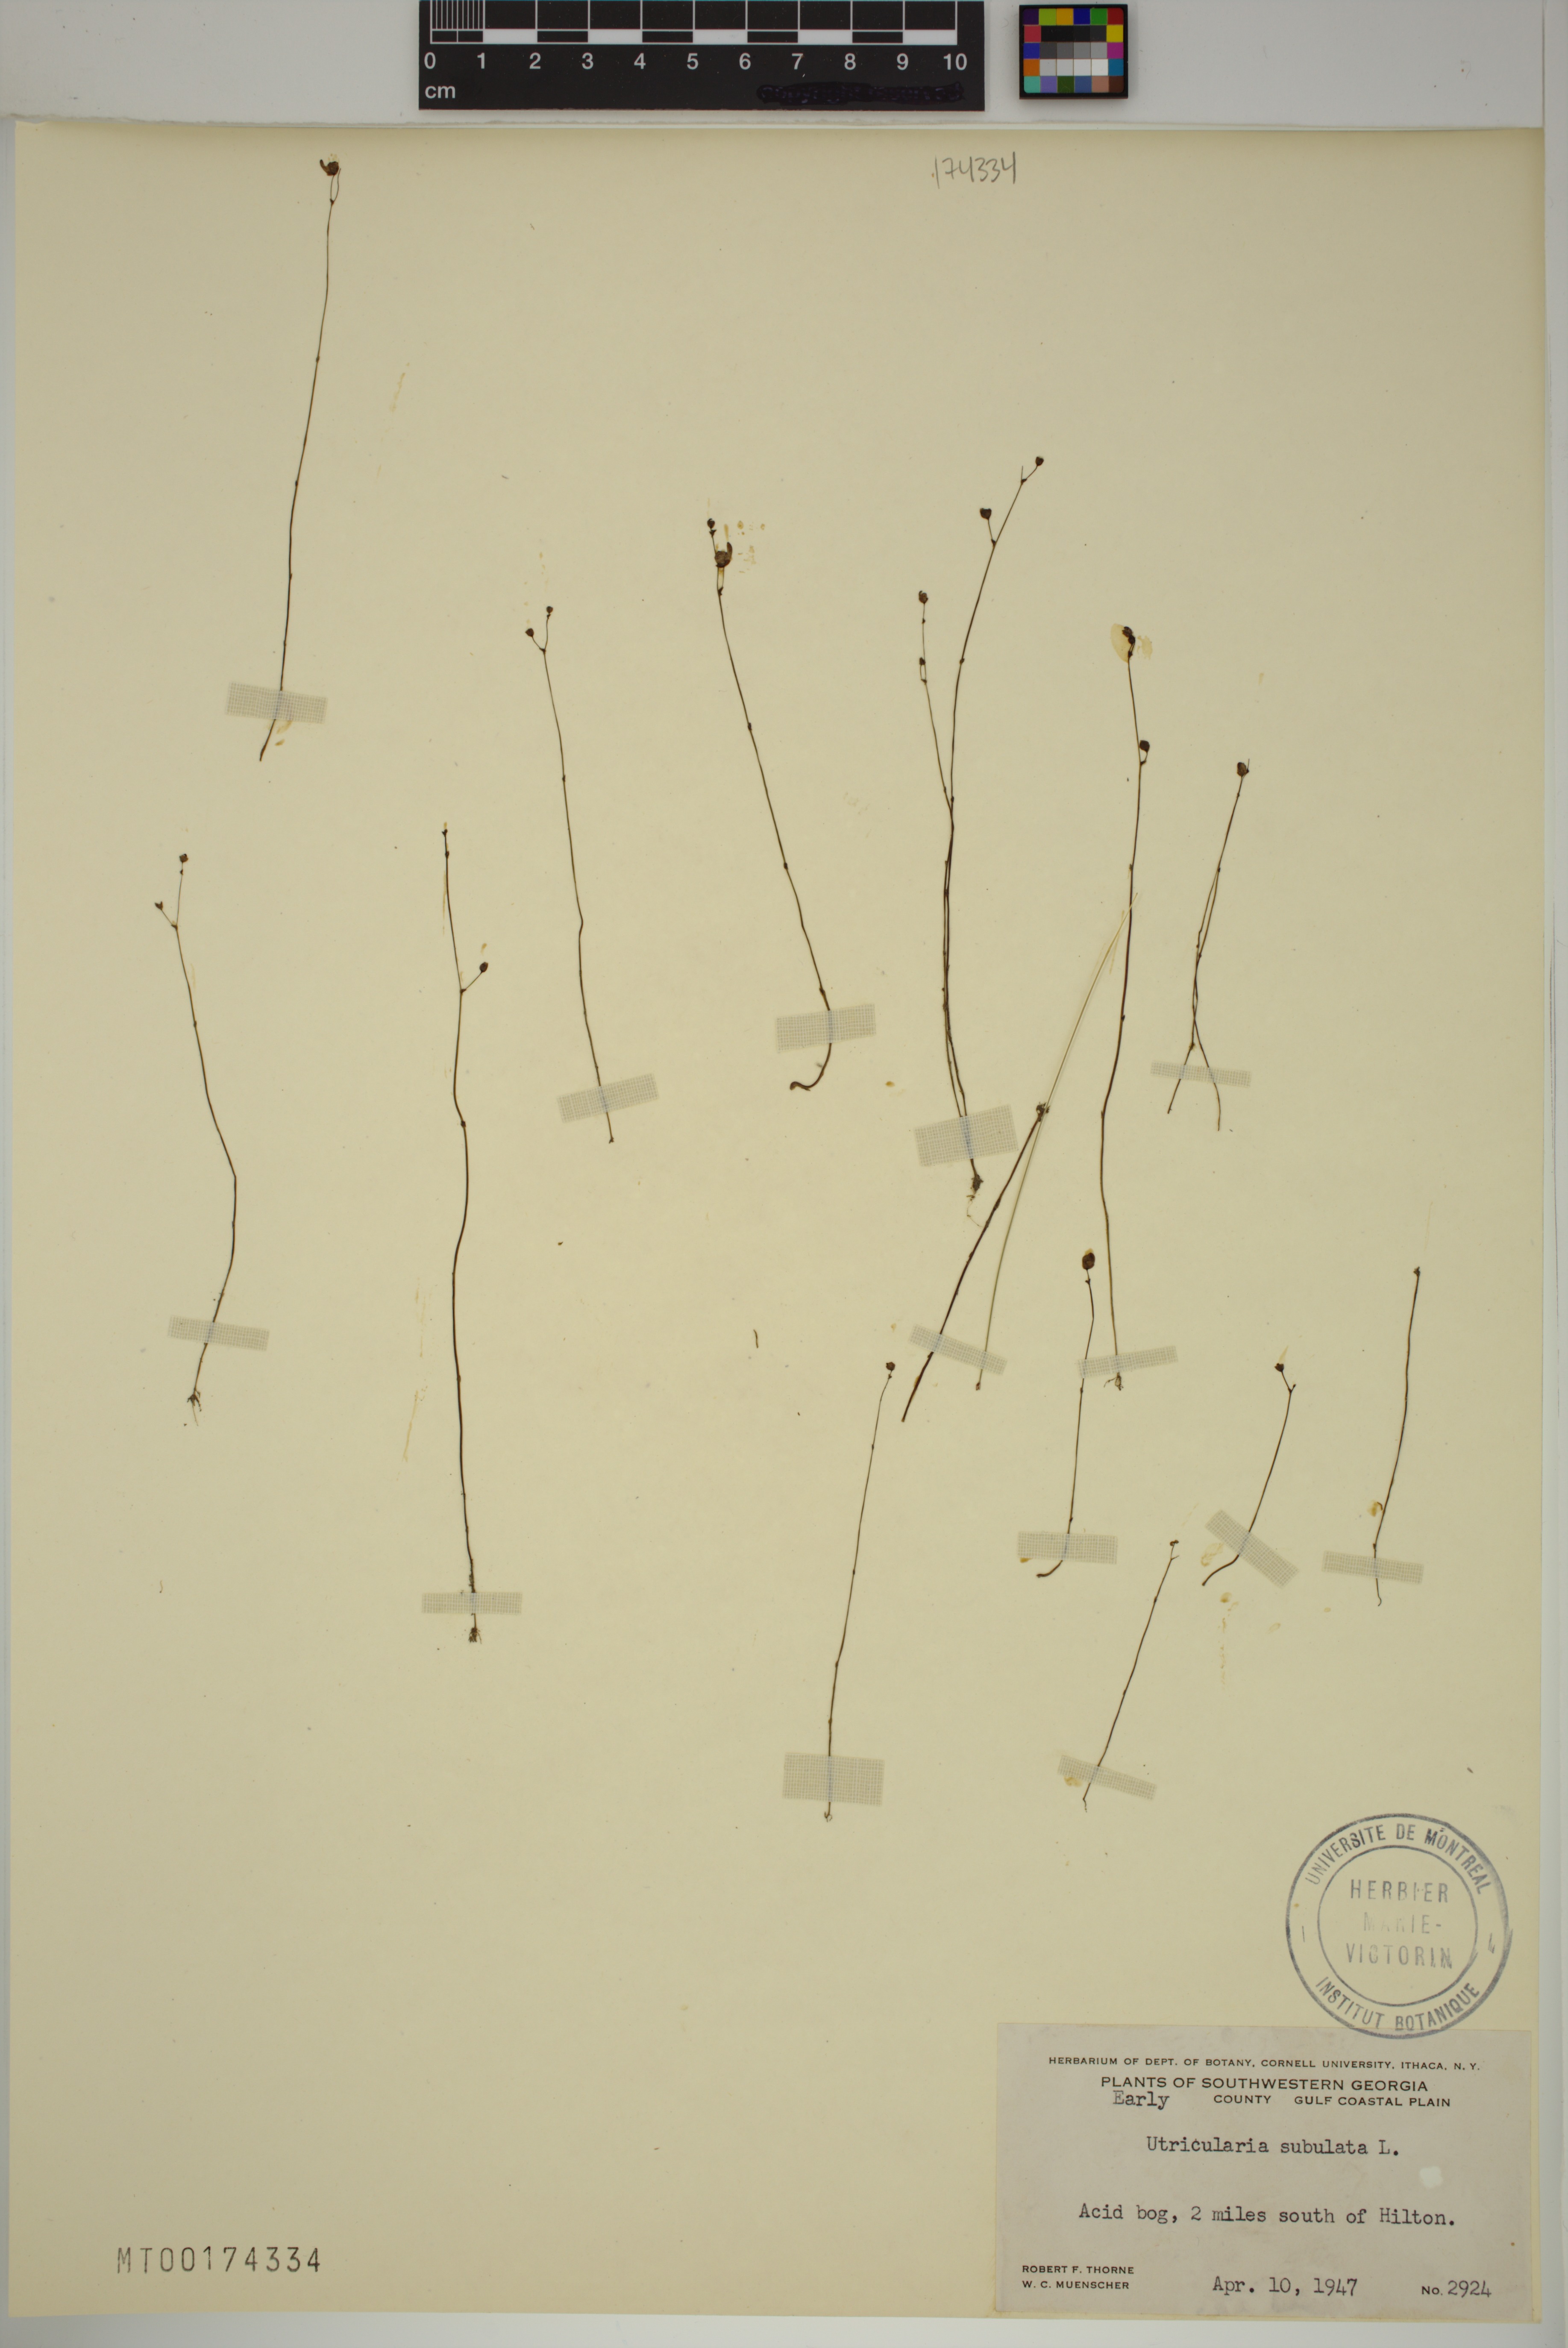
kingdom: Plantae
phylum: Tracheophyta
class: Magnoliopsida
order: Lamiales
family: Lentibulariaceae
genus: Utricularia
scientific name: Utricularia subulata
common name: Tiny bladderwort
